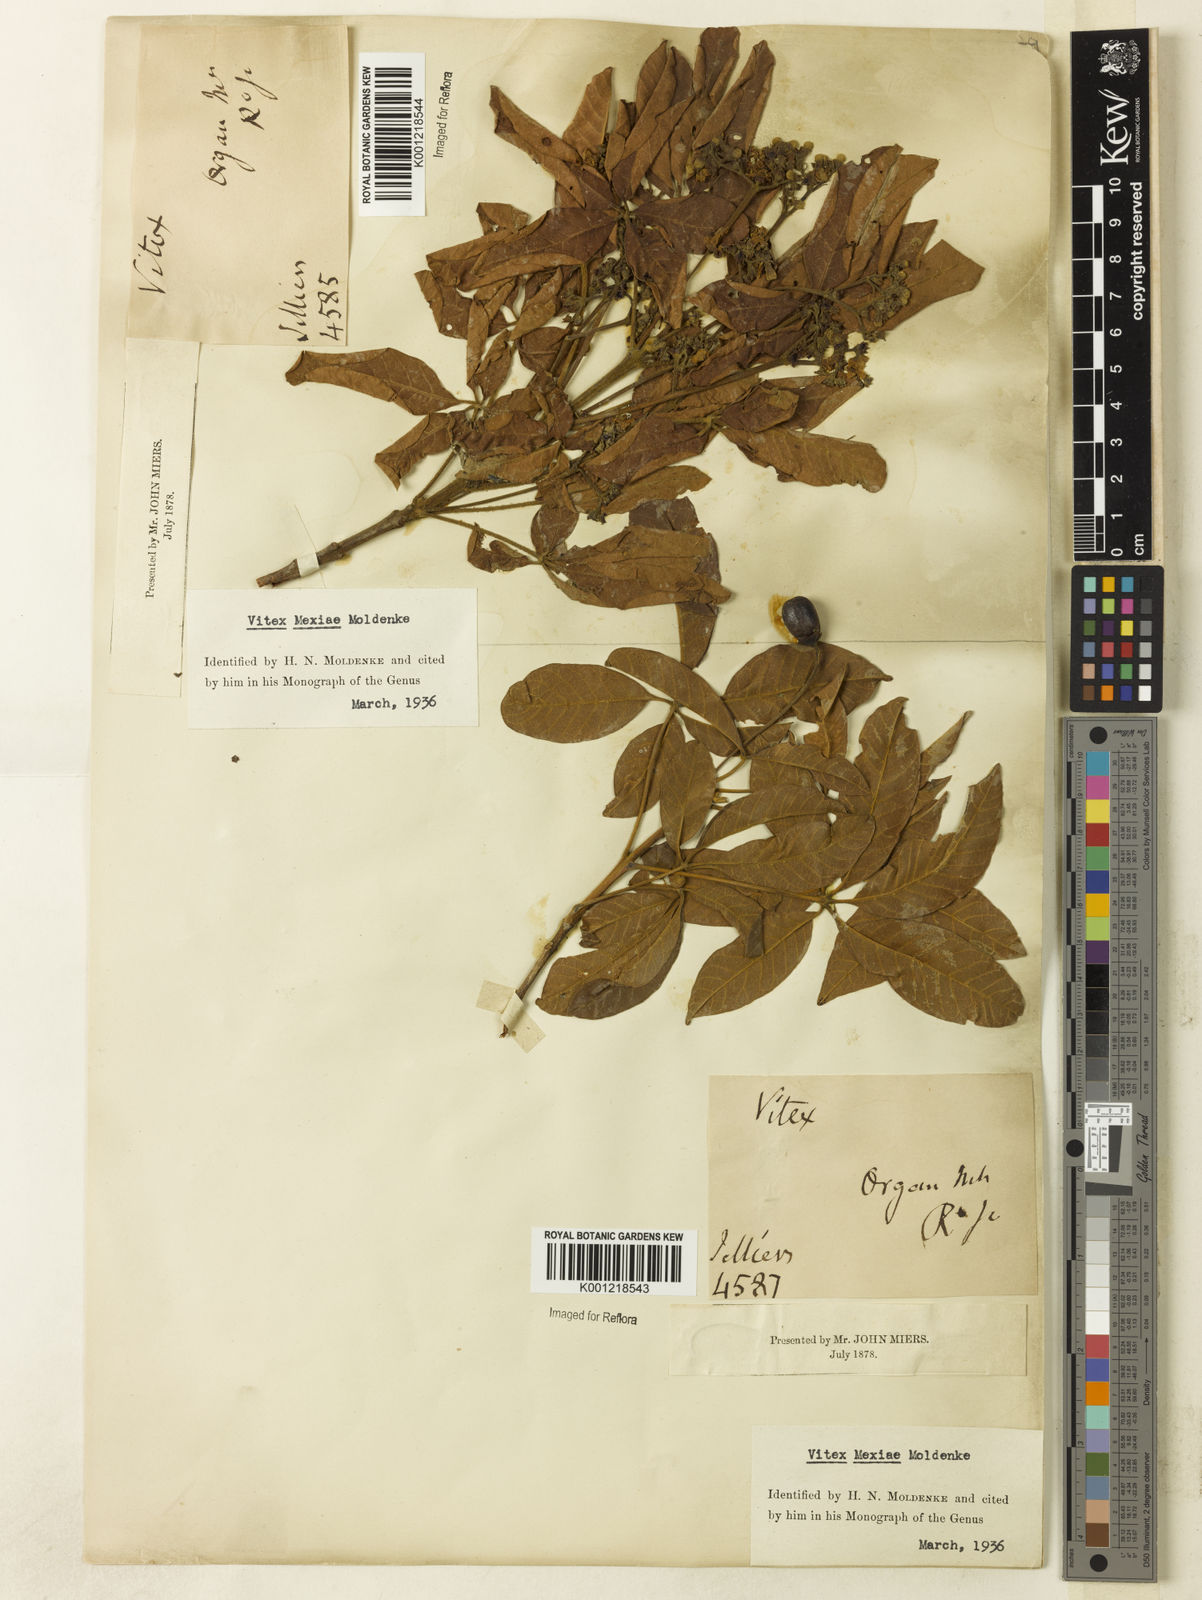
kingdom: Plantae
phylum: Tracheophyta
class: Magnoliopsida
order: Lamiales
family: Lamiaceae
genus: Vitex
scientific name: Vitex sellowiana
